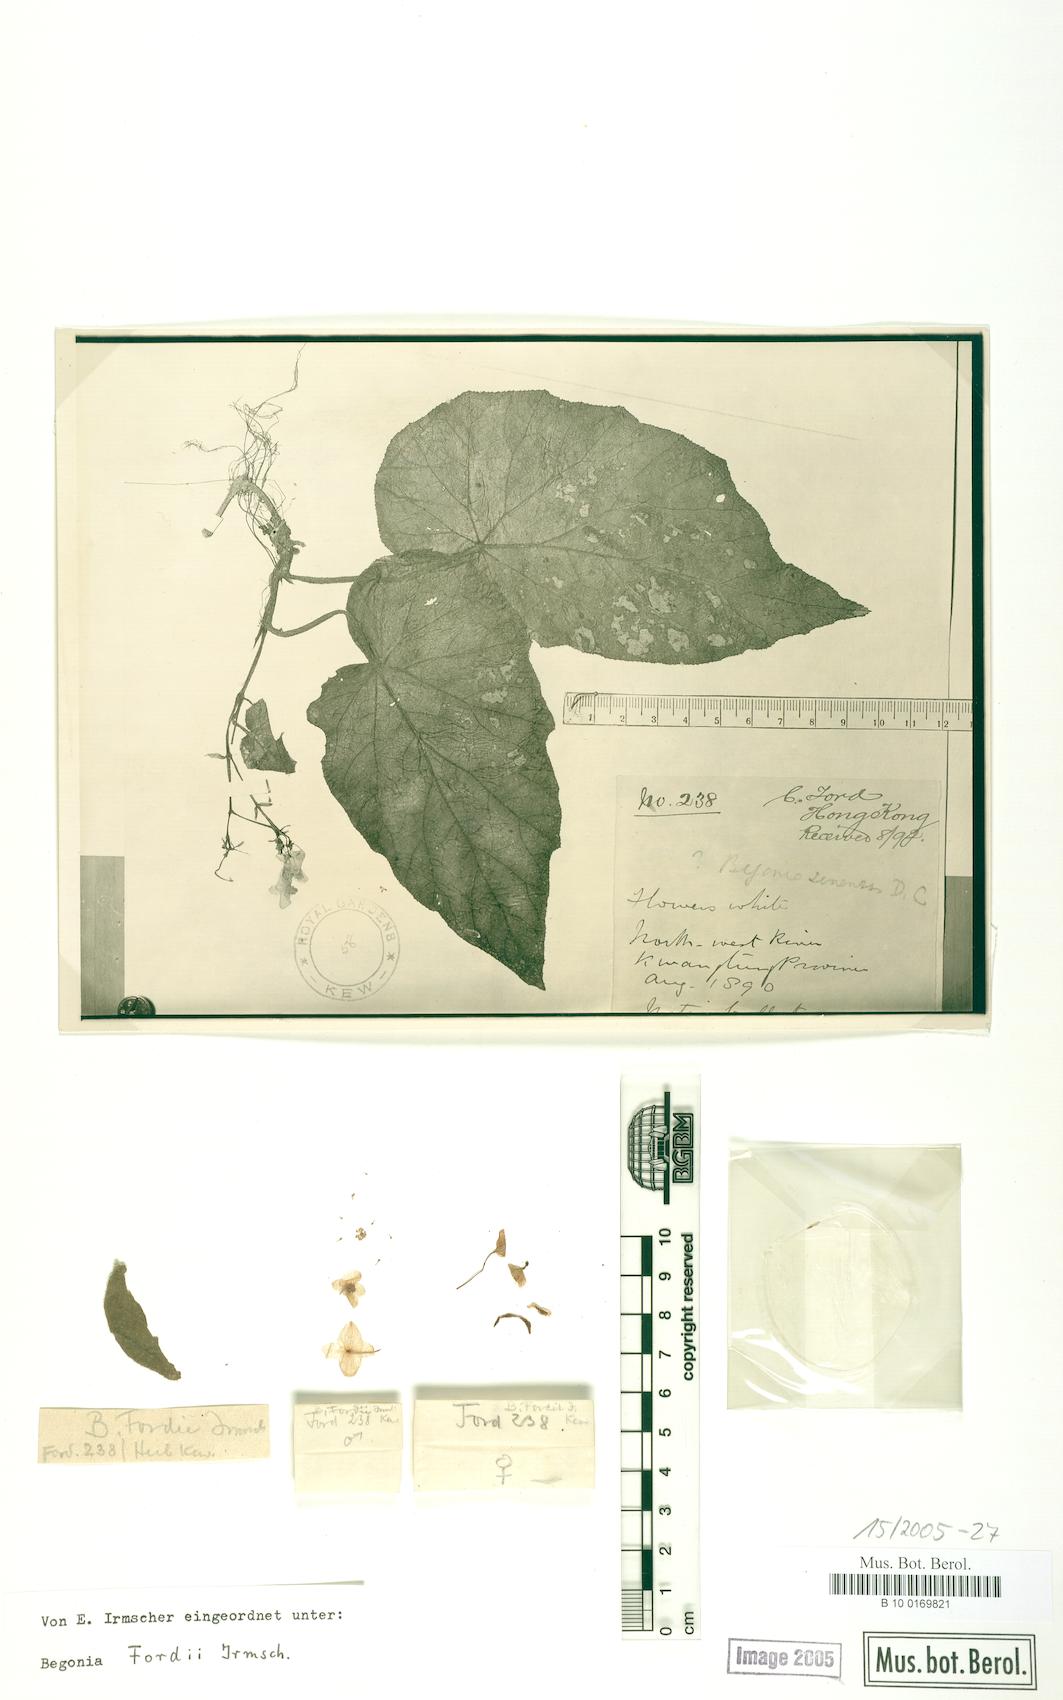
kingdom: Plantae
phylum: Tracheophyta
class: Magnoliopsida
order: Cucurbitales
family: Begoniaceae
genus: Begonia
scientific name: Begonia dryadis
